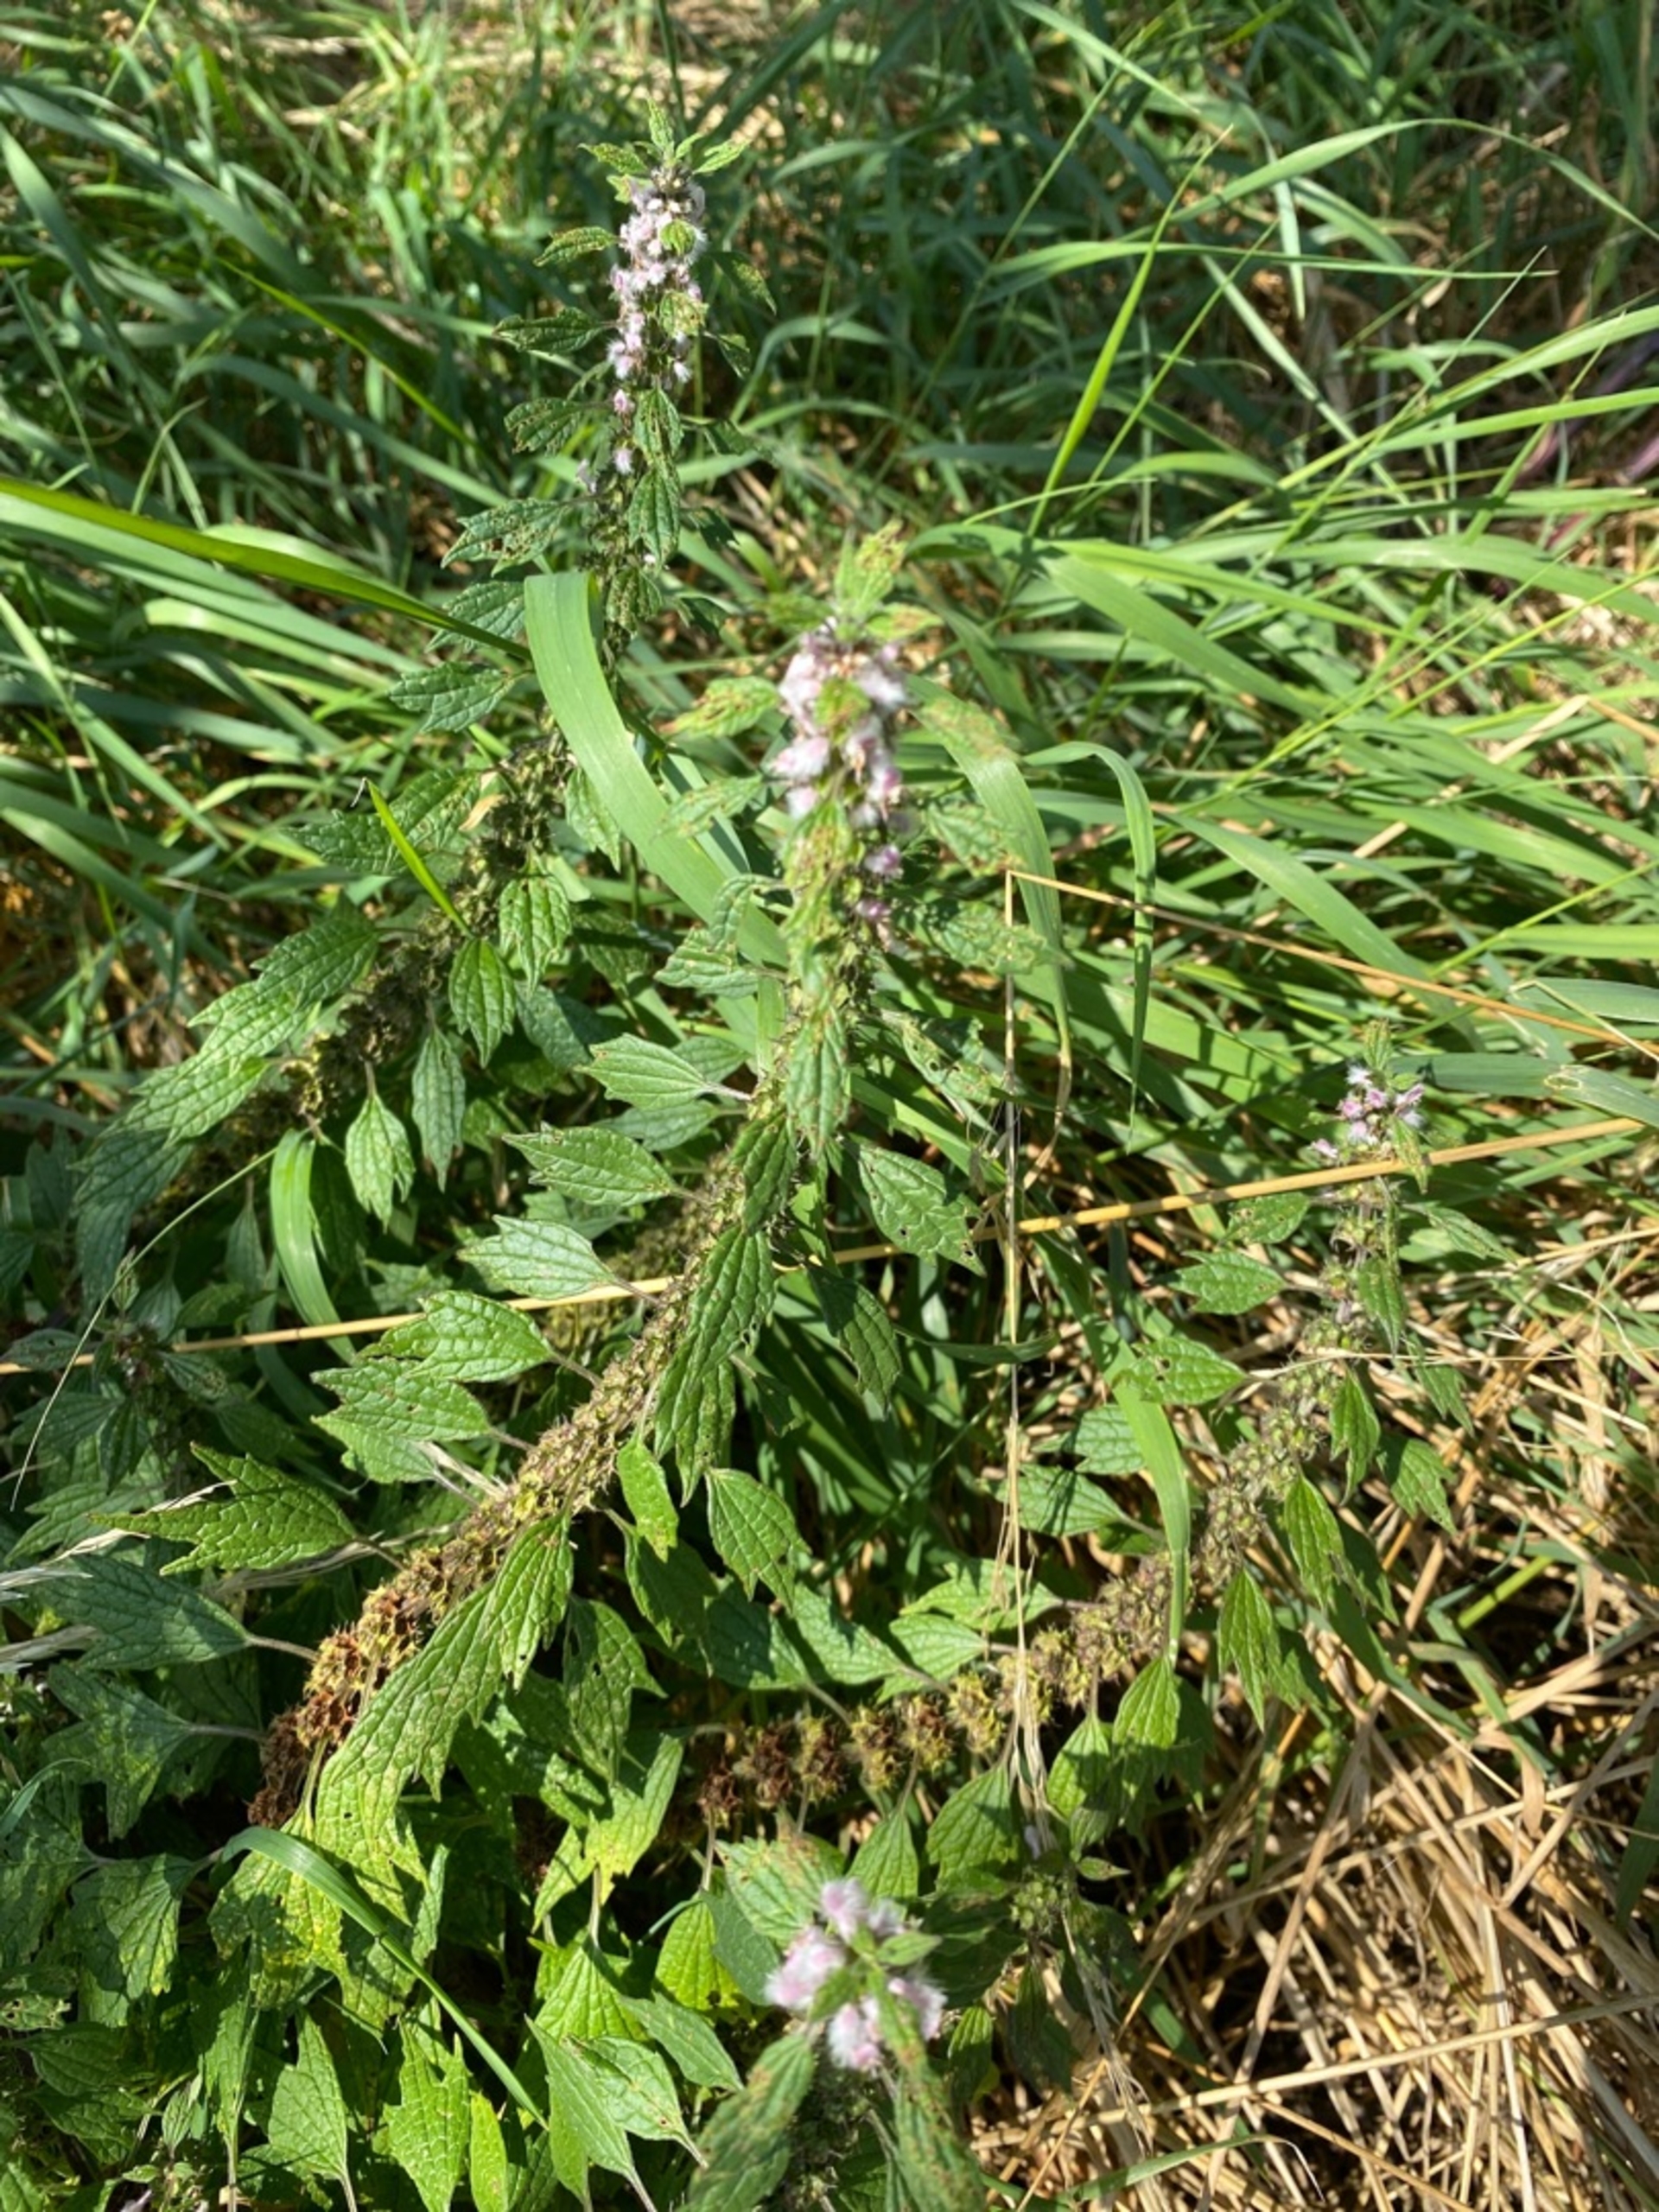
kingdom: Plantae
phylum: Tracheophyta
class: Magnoliopsida
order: Lamiales
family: Lamiaceae
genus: Leonurus
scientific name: Leonurus cardiaca
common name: Hjertespand
